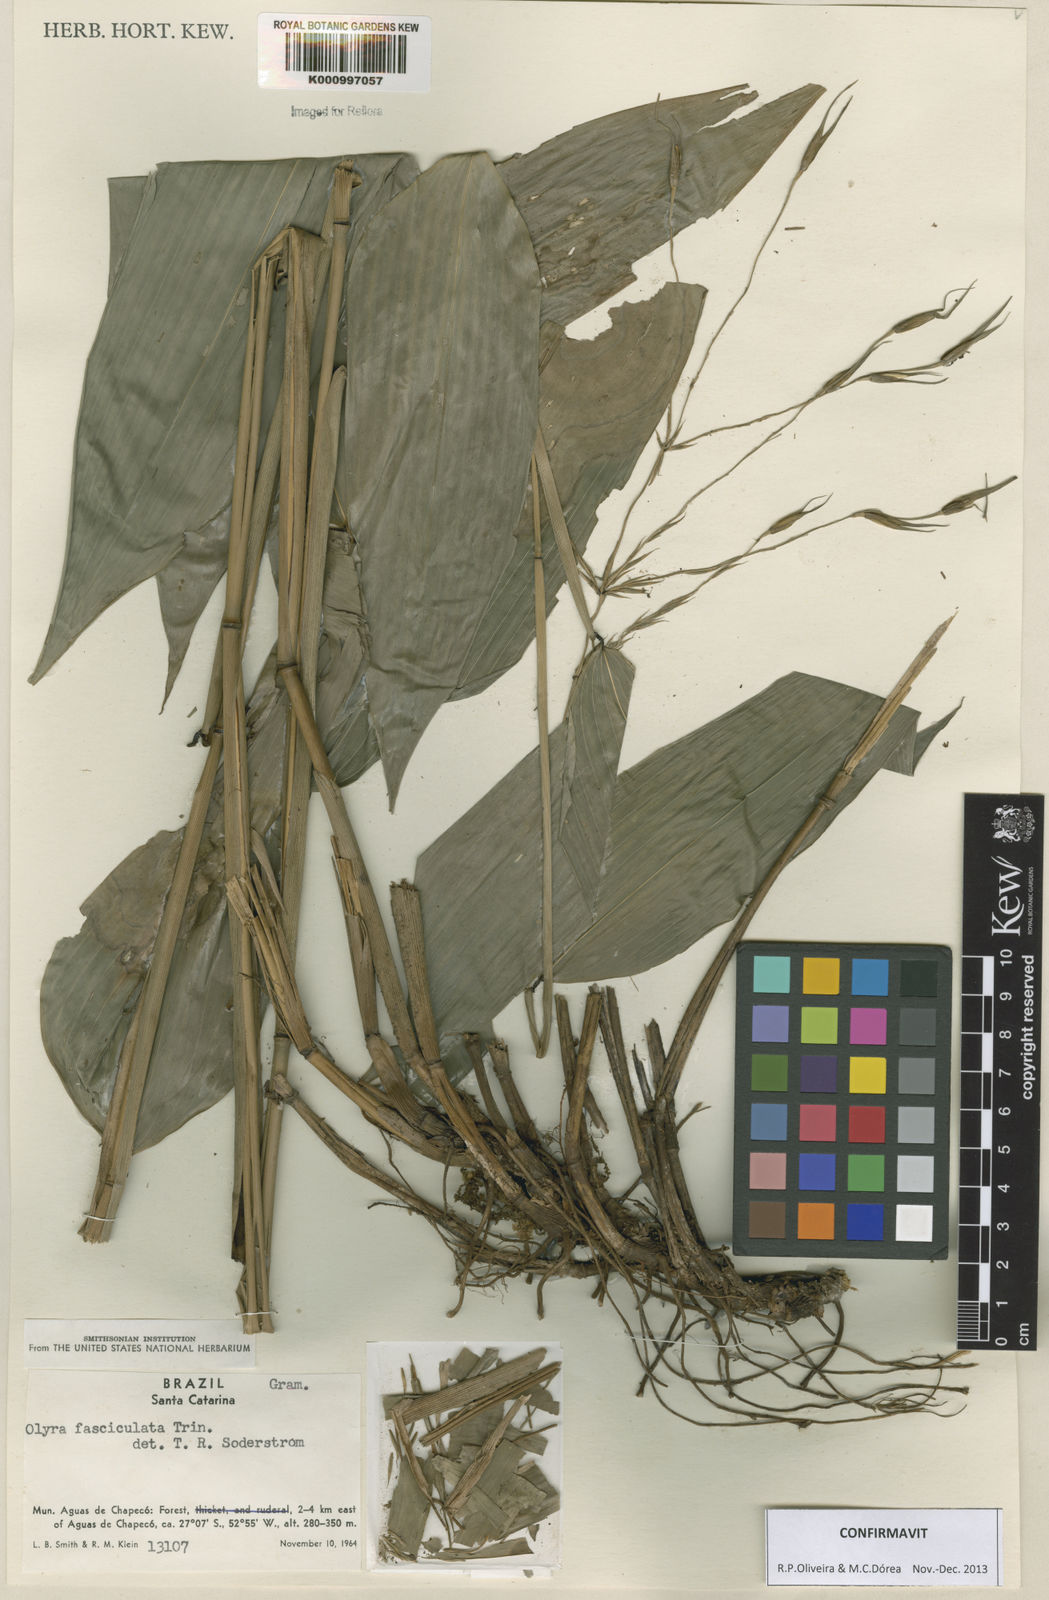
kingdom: Plantae
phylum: Tracheophyta
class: Liliopsida
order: Poales
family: Poaceae
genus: Olyra
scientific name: Olyra fasciculata
